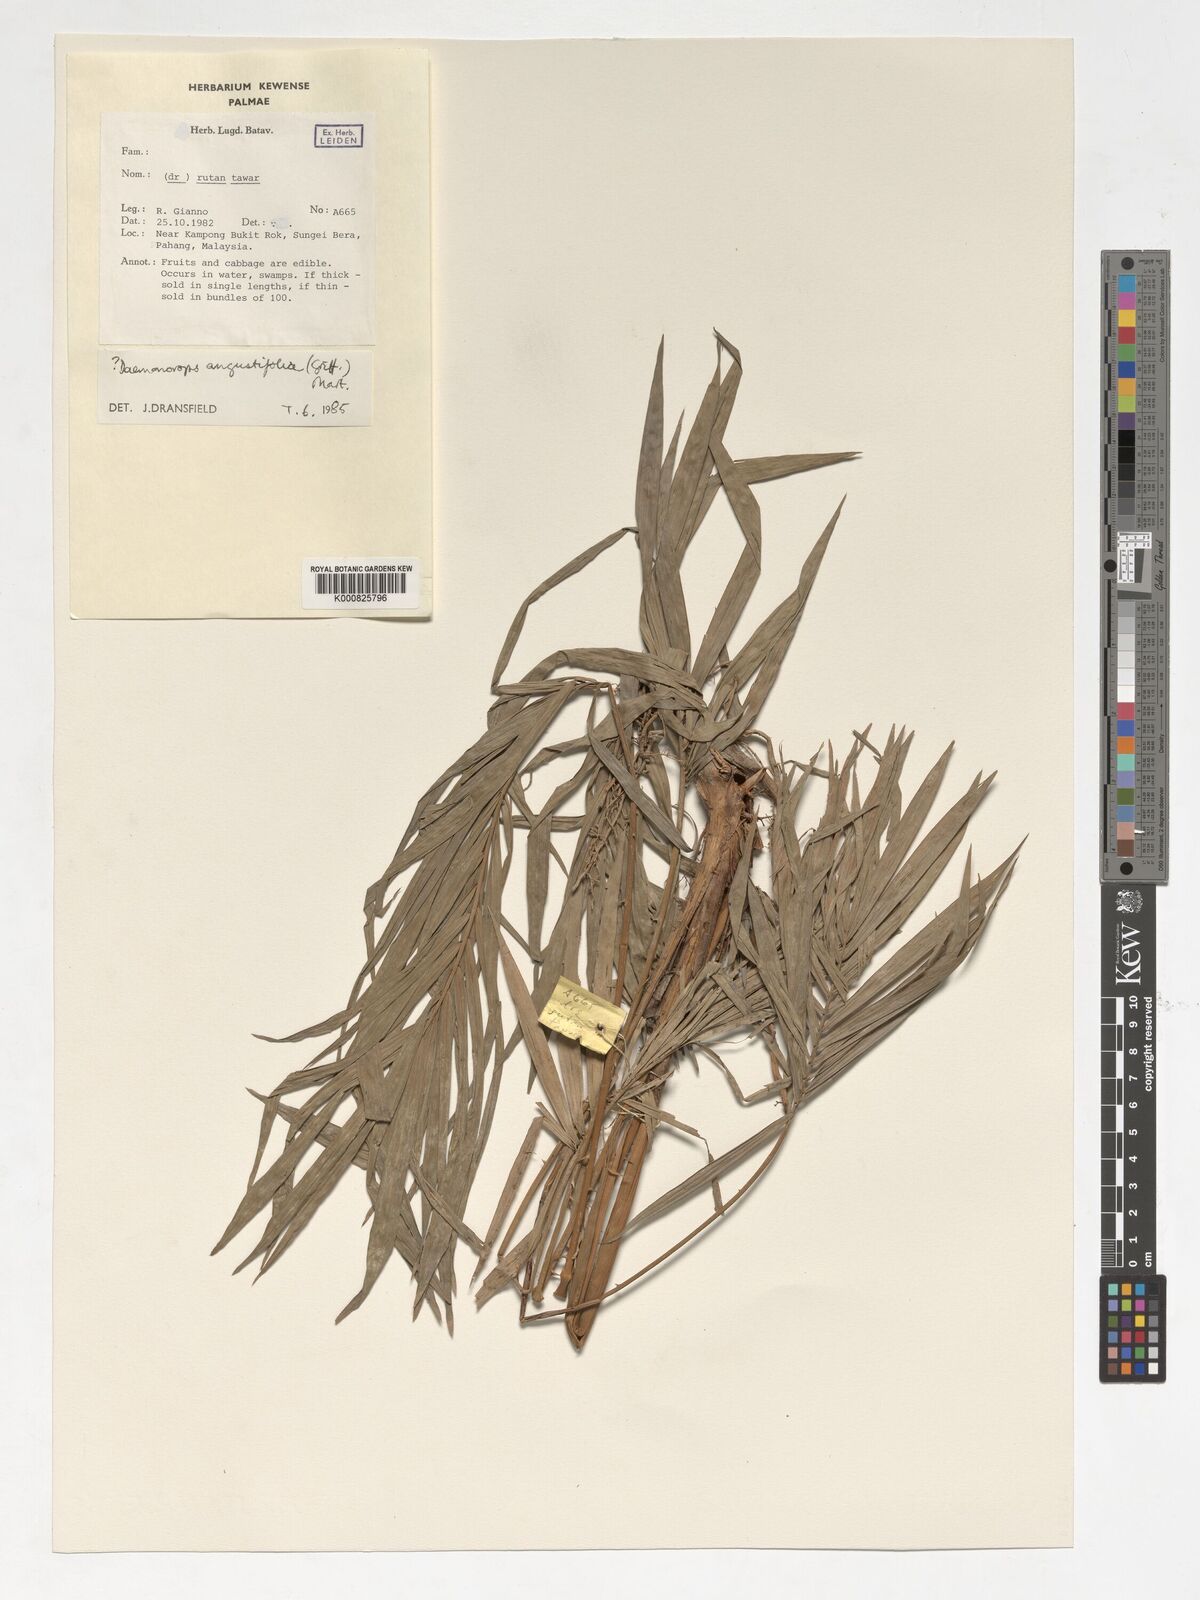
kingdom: Plantae
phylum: Tracheophyta
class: Liliopsida
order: Arecales
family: Arecaceae
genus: Daemonorops
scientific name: Daemonorops
